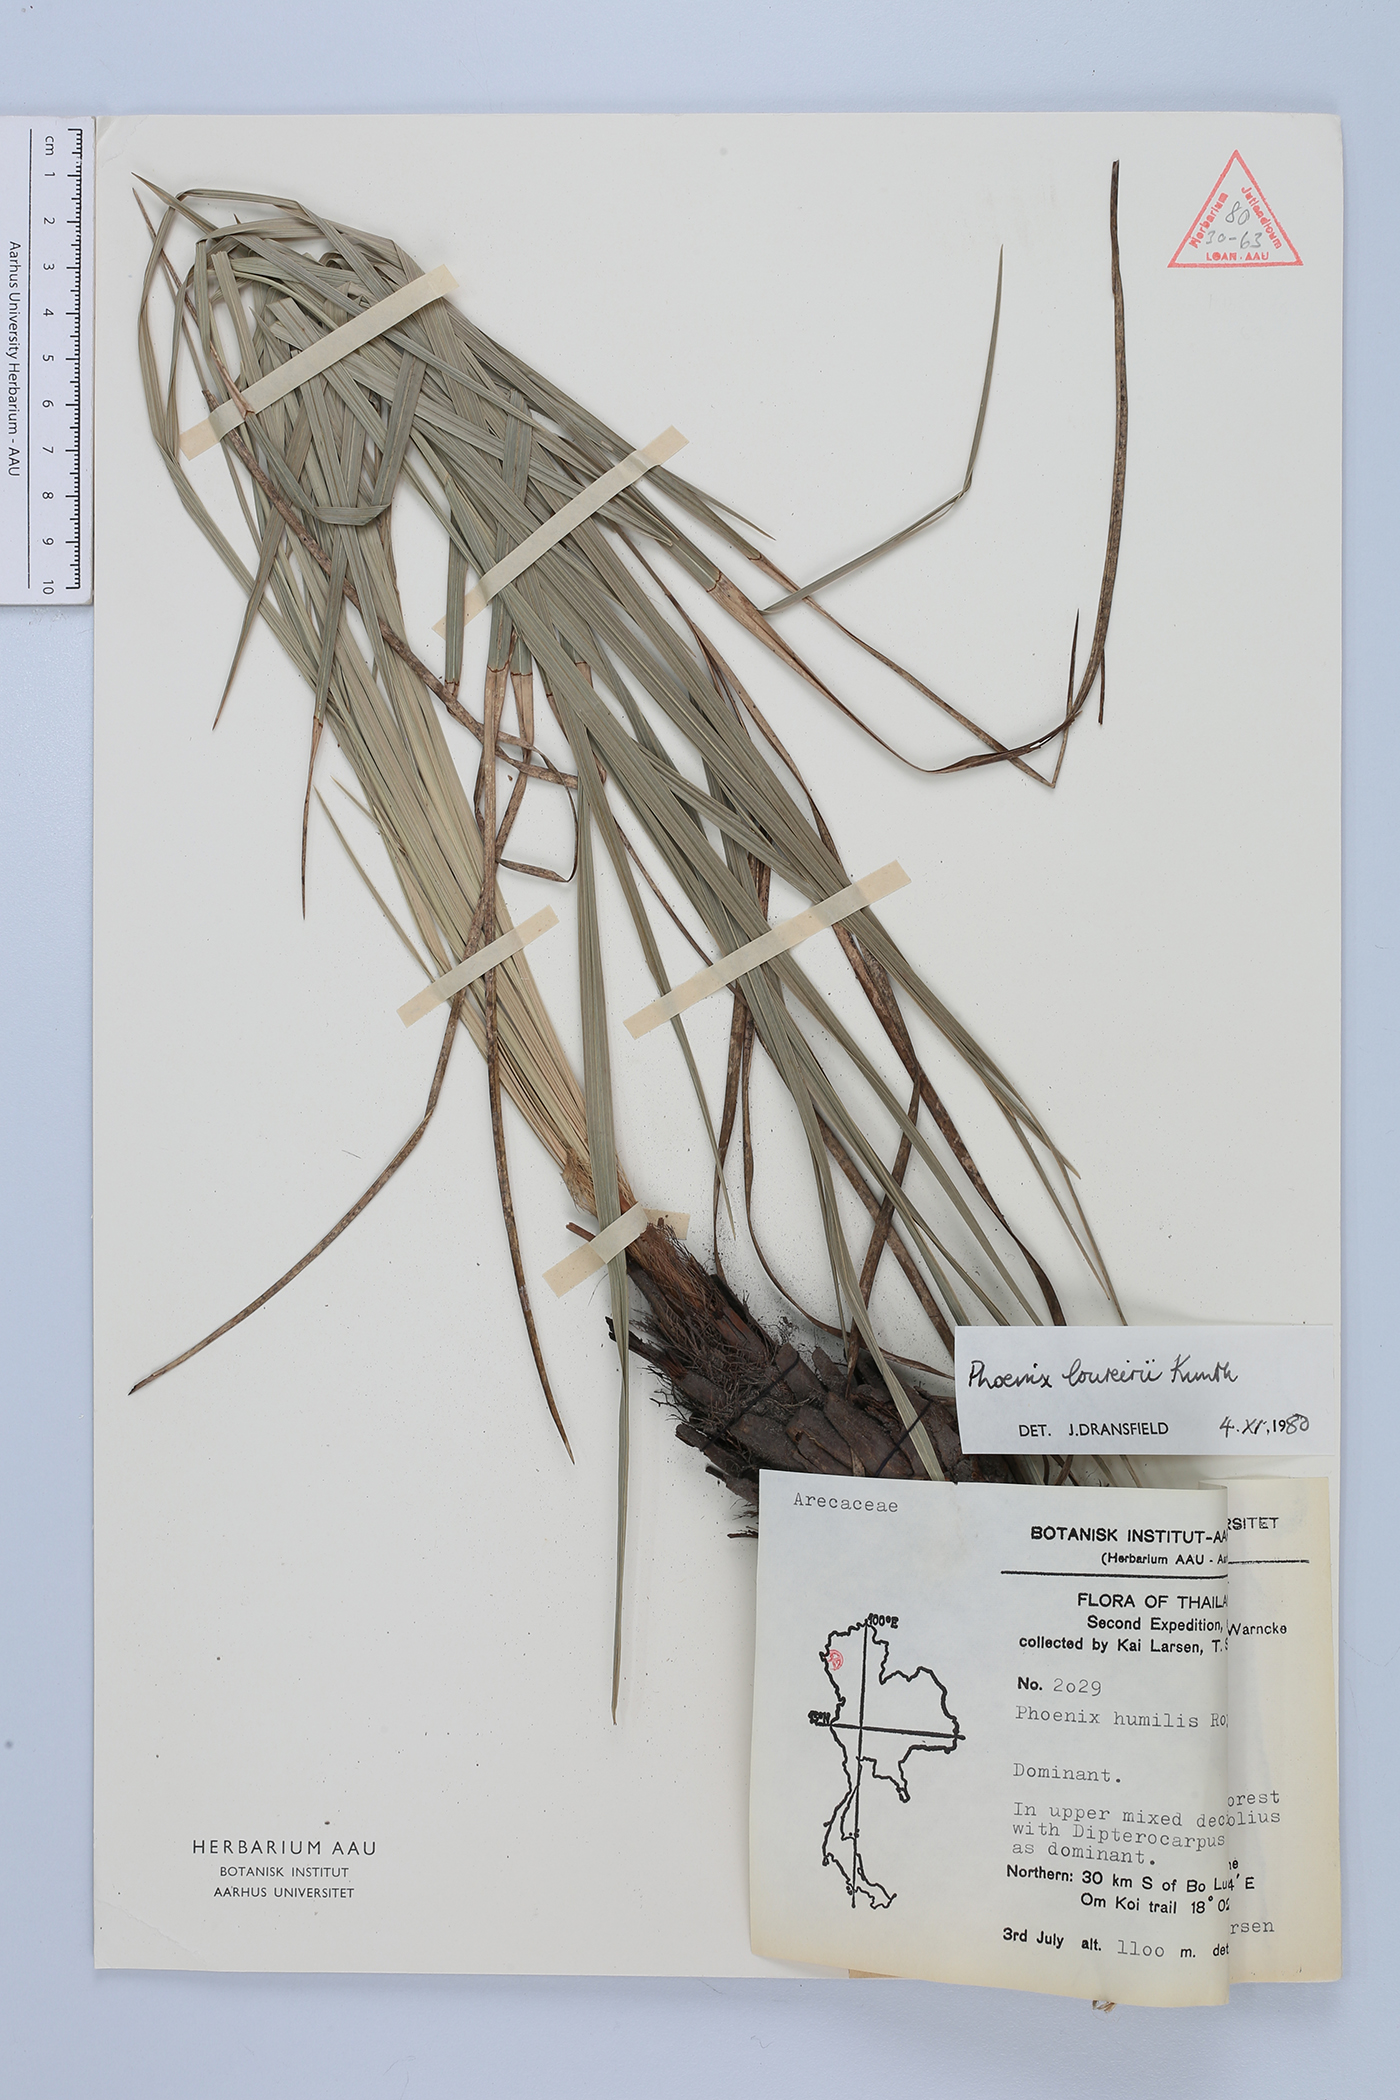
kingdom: Plantae
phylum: Tracheophyta
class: Liliopsida
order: Arecales
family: Arecaceae
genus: Phoenix
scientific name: Phoenix loureiroi
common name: Loureiro's palm
